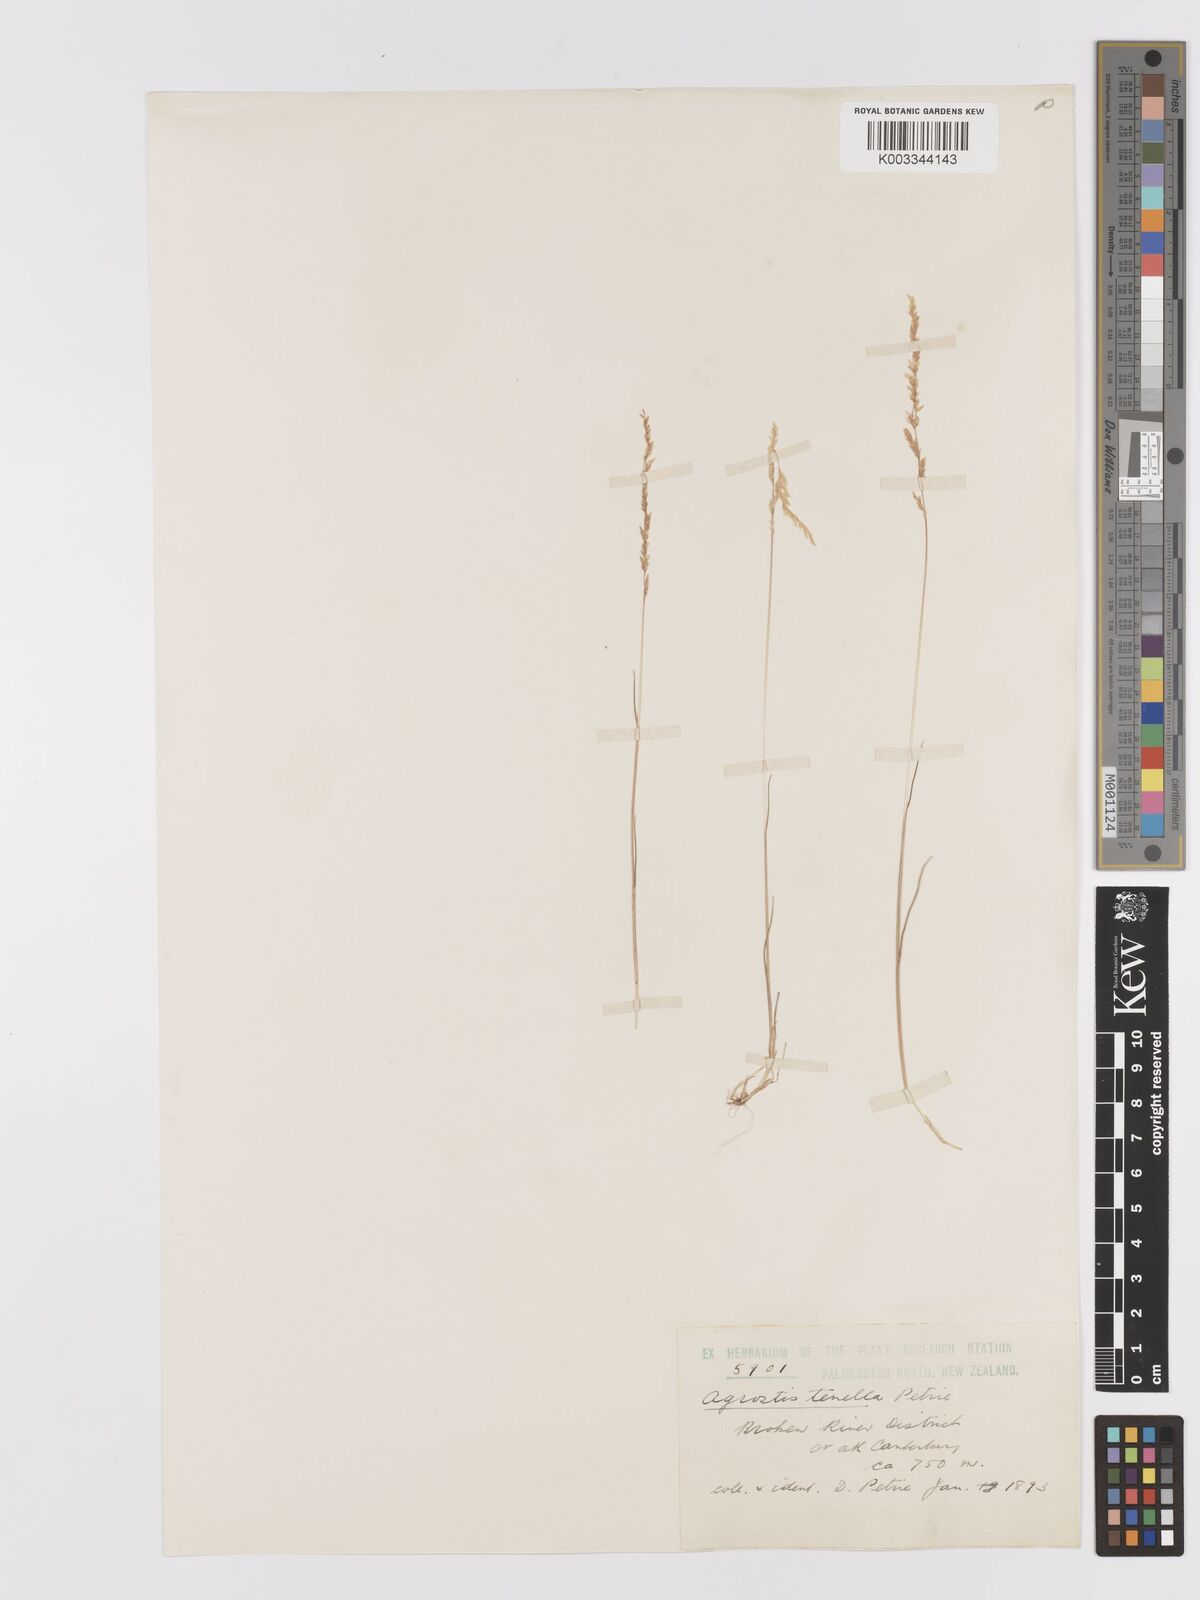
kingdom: Plantae
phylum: Tracheophyta
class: Liliopsida
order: Poales
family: Poaceae
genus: Agrostis
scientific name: Agrostis imbecilla
